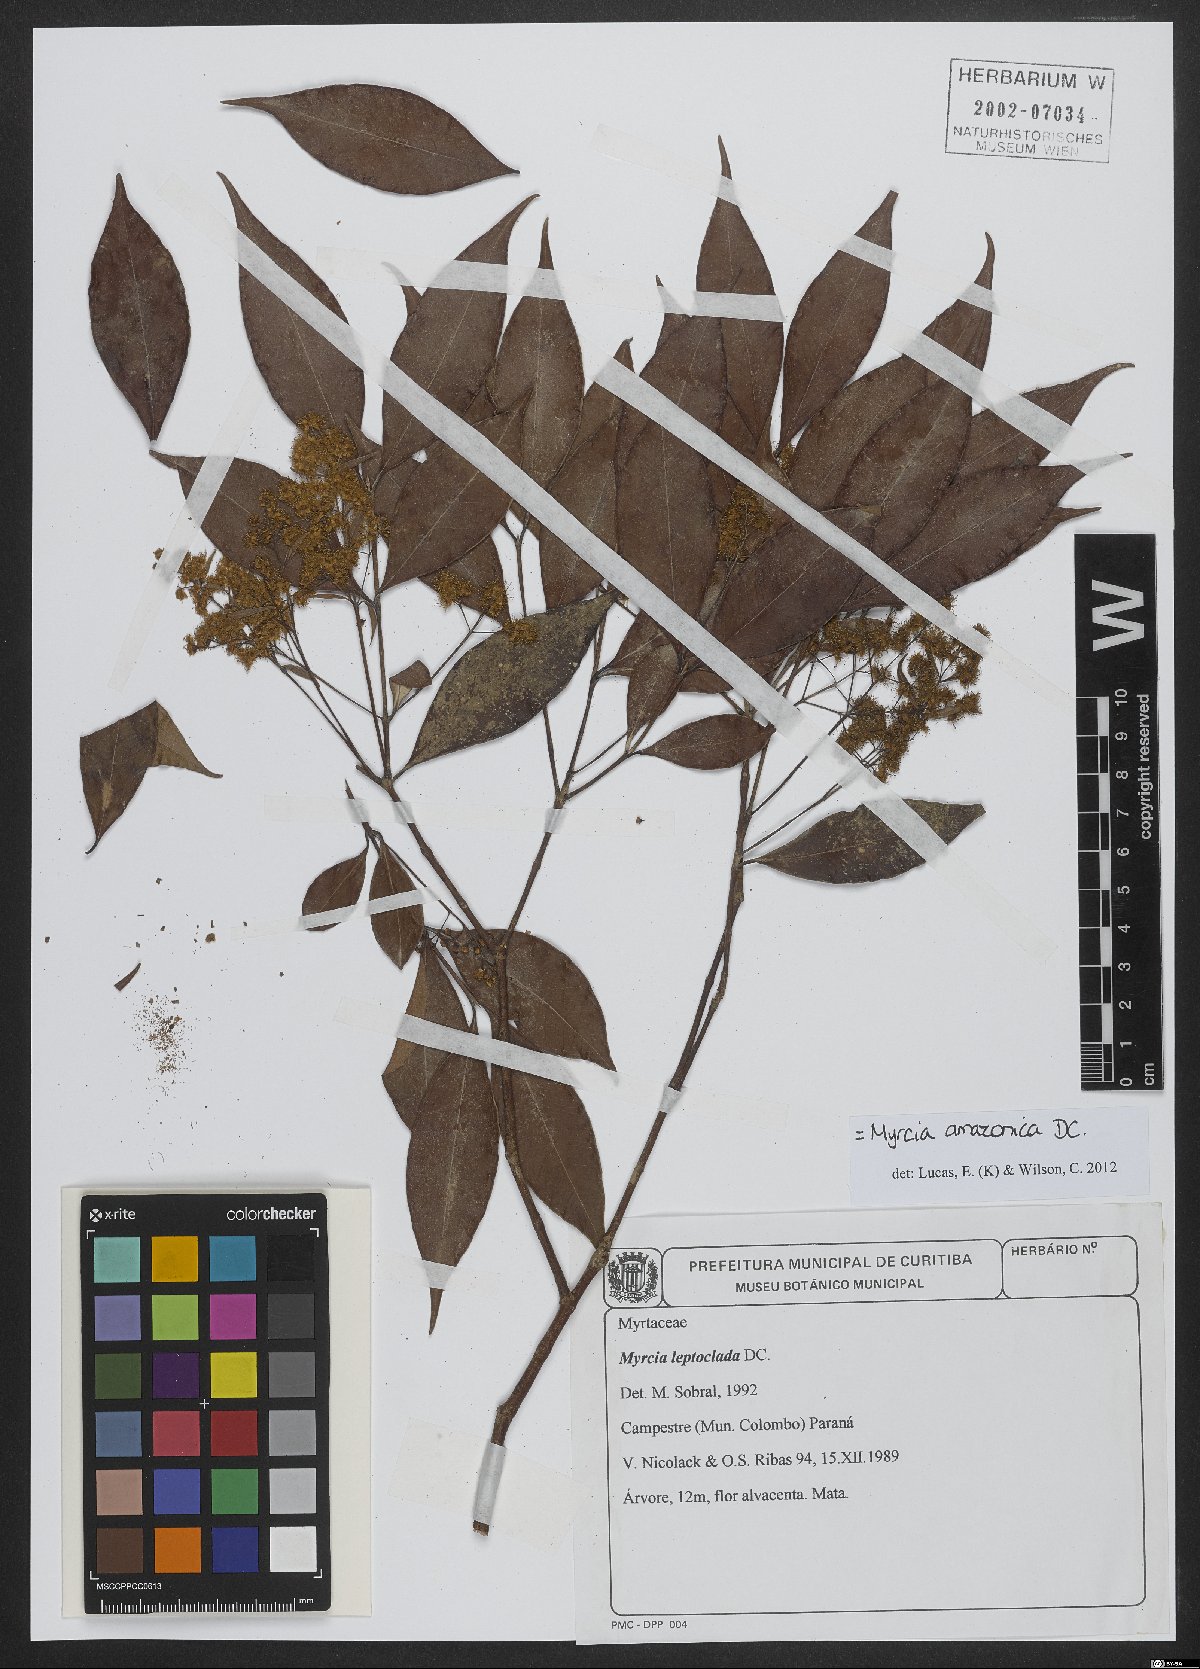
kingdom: Plantae
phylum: Tracheophyta
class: Magnoliopsida
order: Myrtales
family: Myrtaceae
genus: Myrcia
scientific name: Myrcia amazonica
